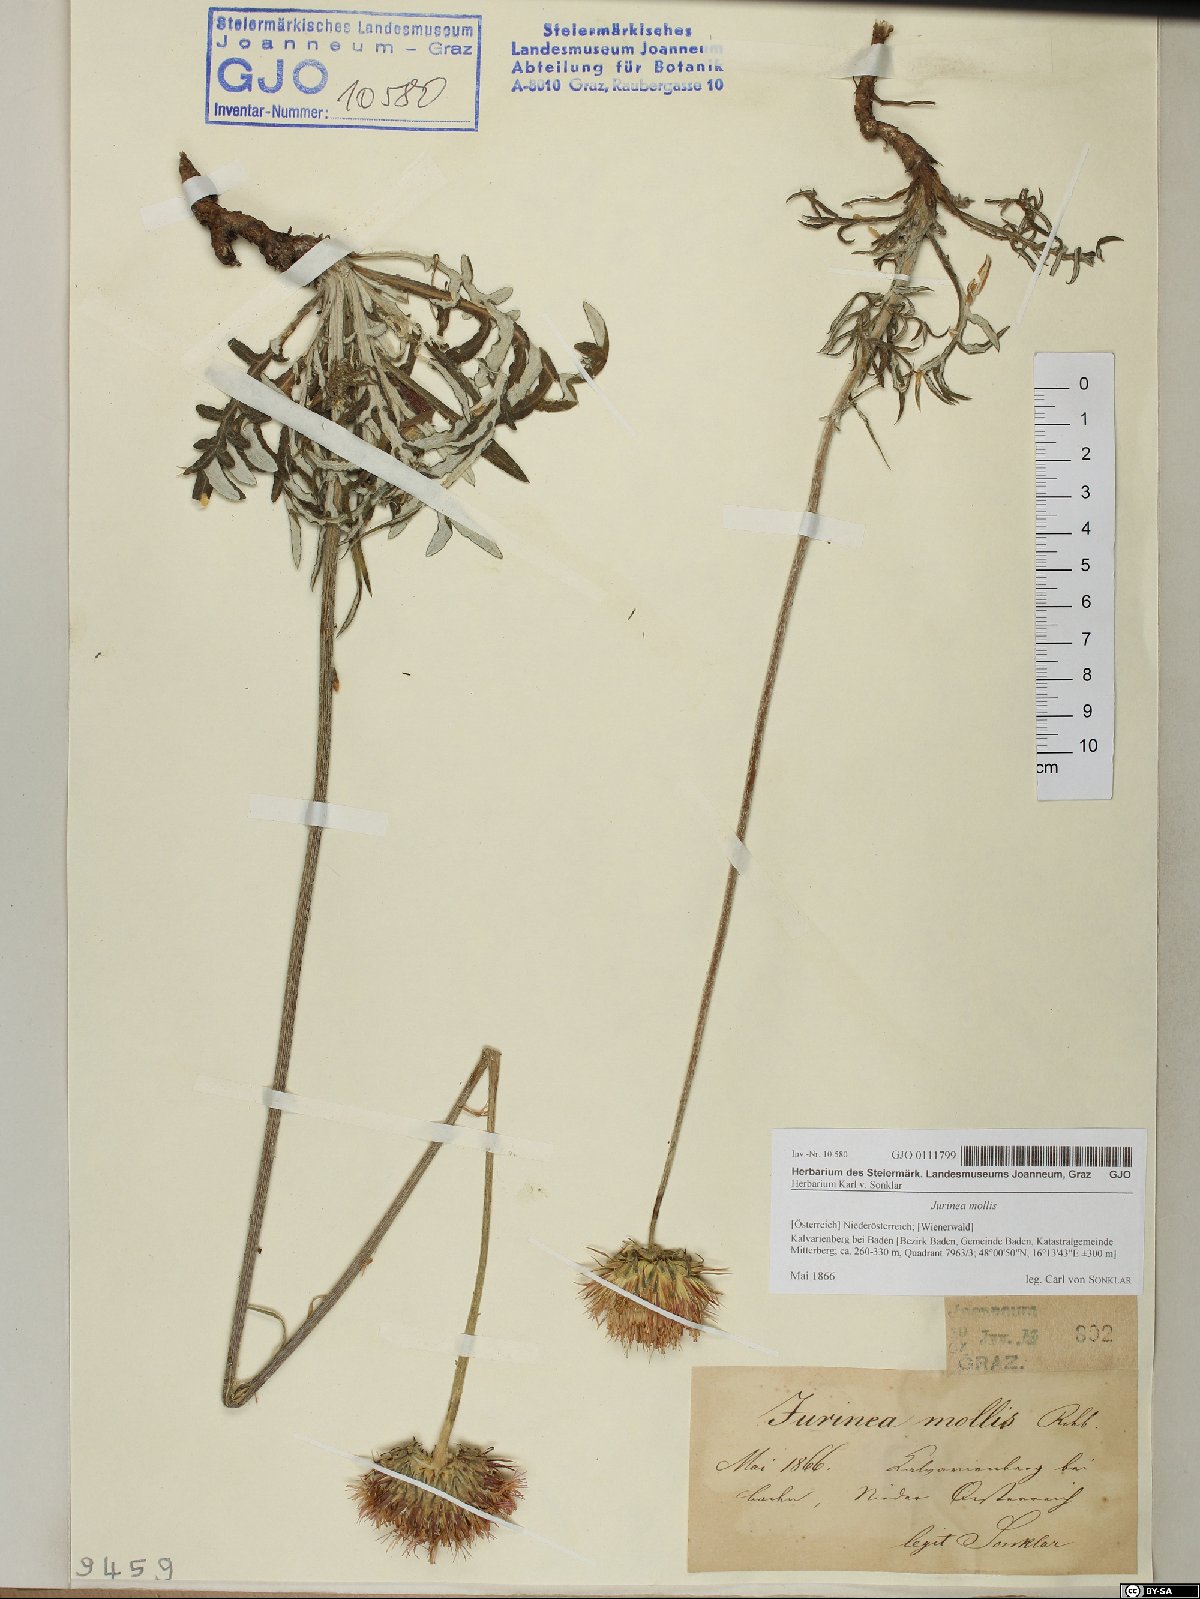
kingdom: Plantae
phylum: Tracheophyta
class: Magnoliopsida
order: Asterales
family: Asteraceae
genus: Jurinea
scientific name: Jurinea mollis
